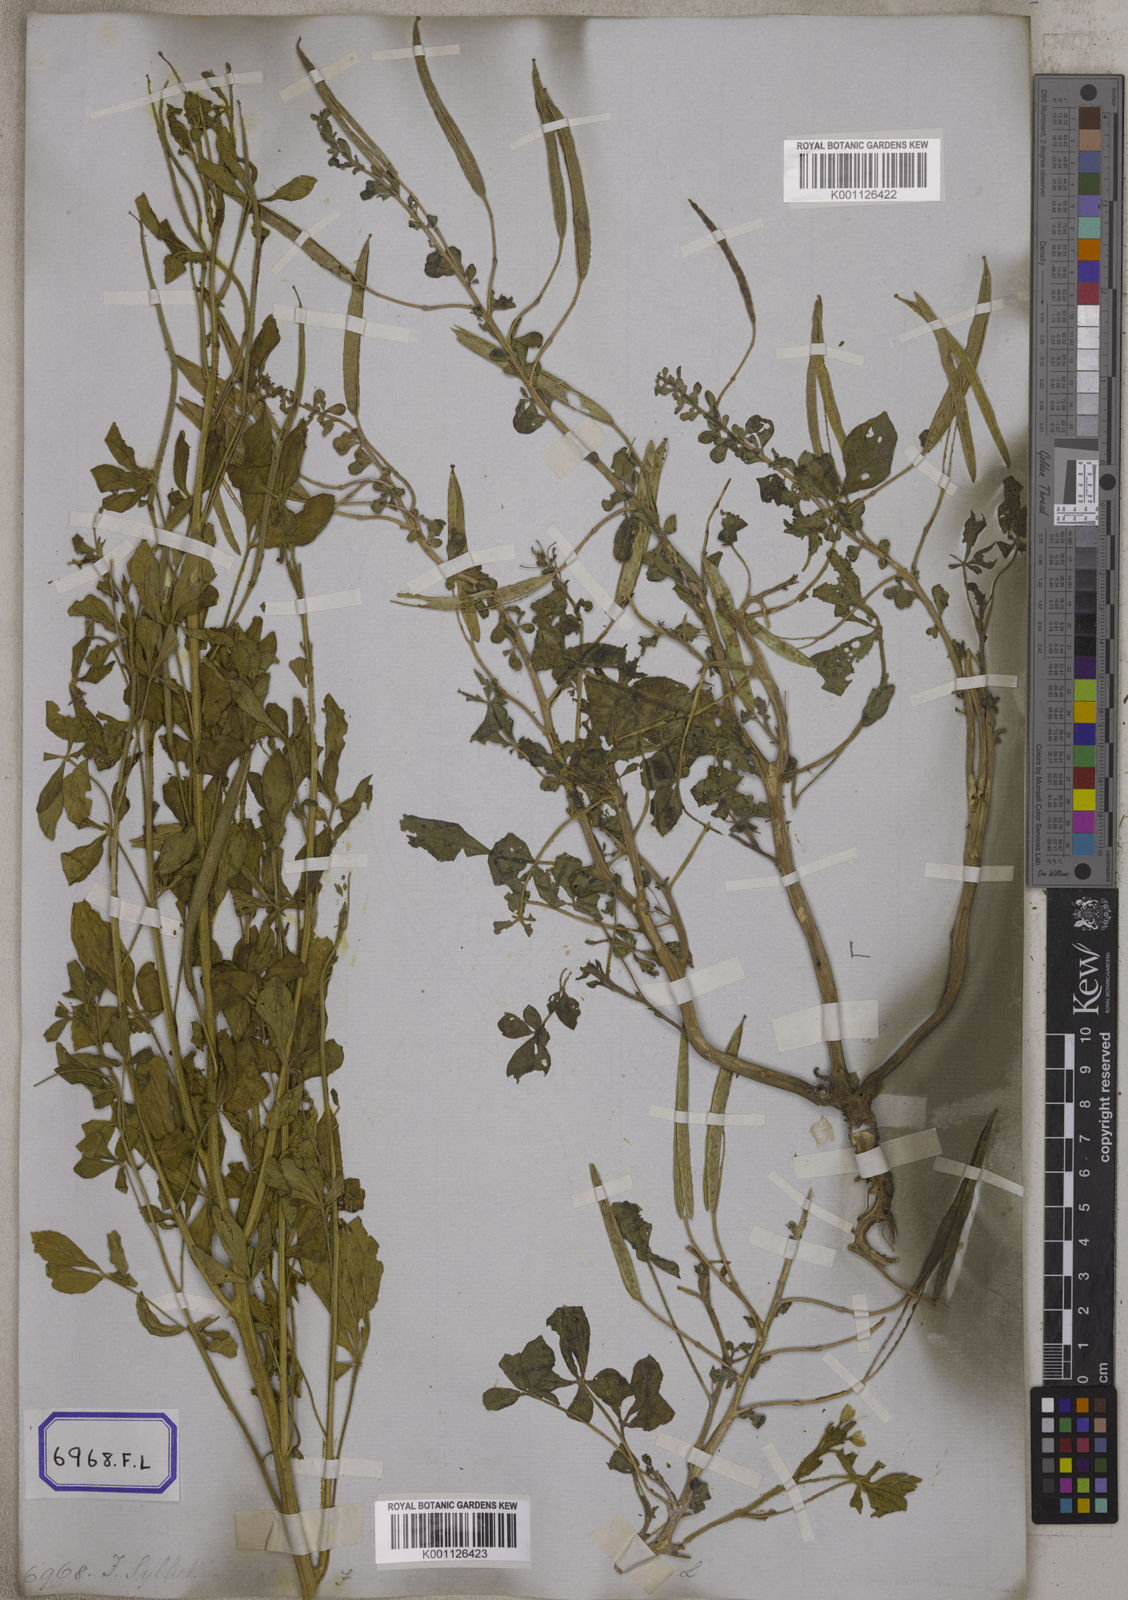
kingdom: Plantae
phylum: Tracheophyta
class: Magnoliopsida
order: Brassicales
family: Cleomaceae
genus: Arivela
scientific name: Arivela viscosa
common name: Asian spiderflower
